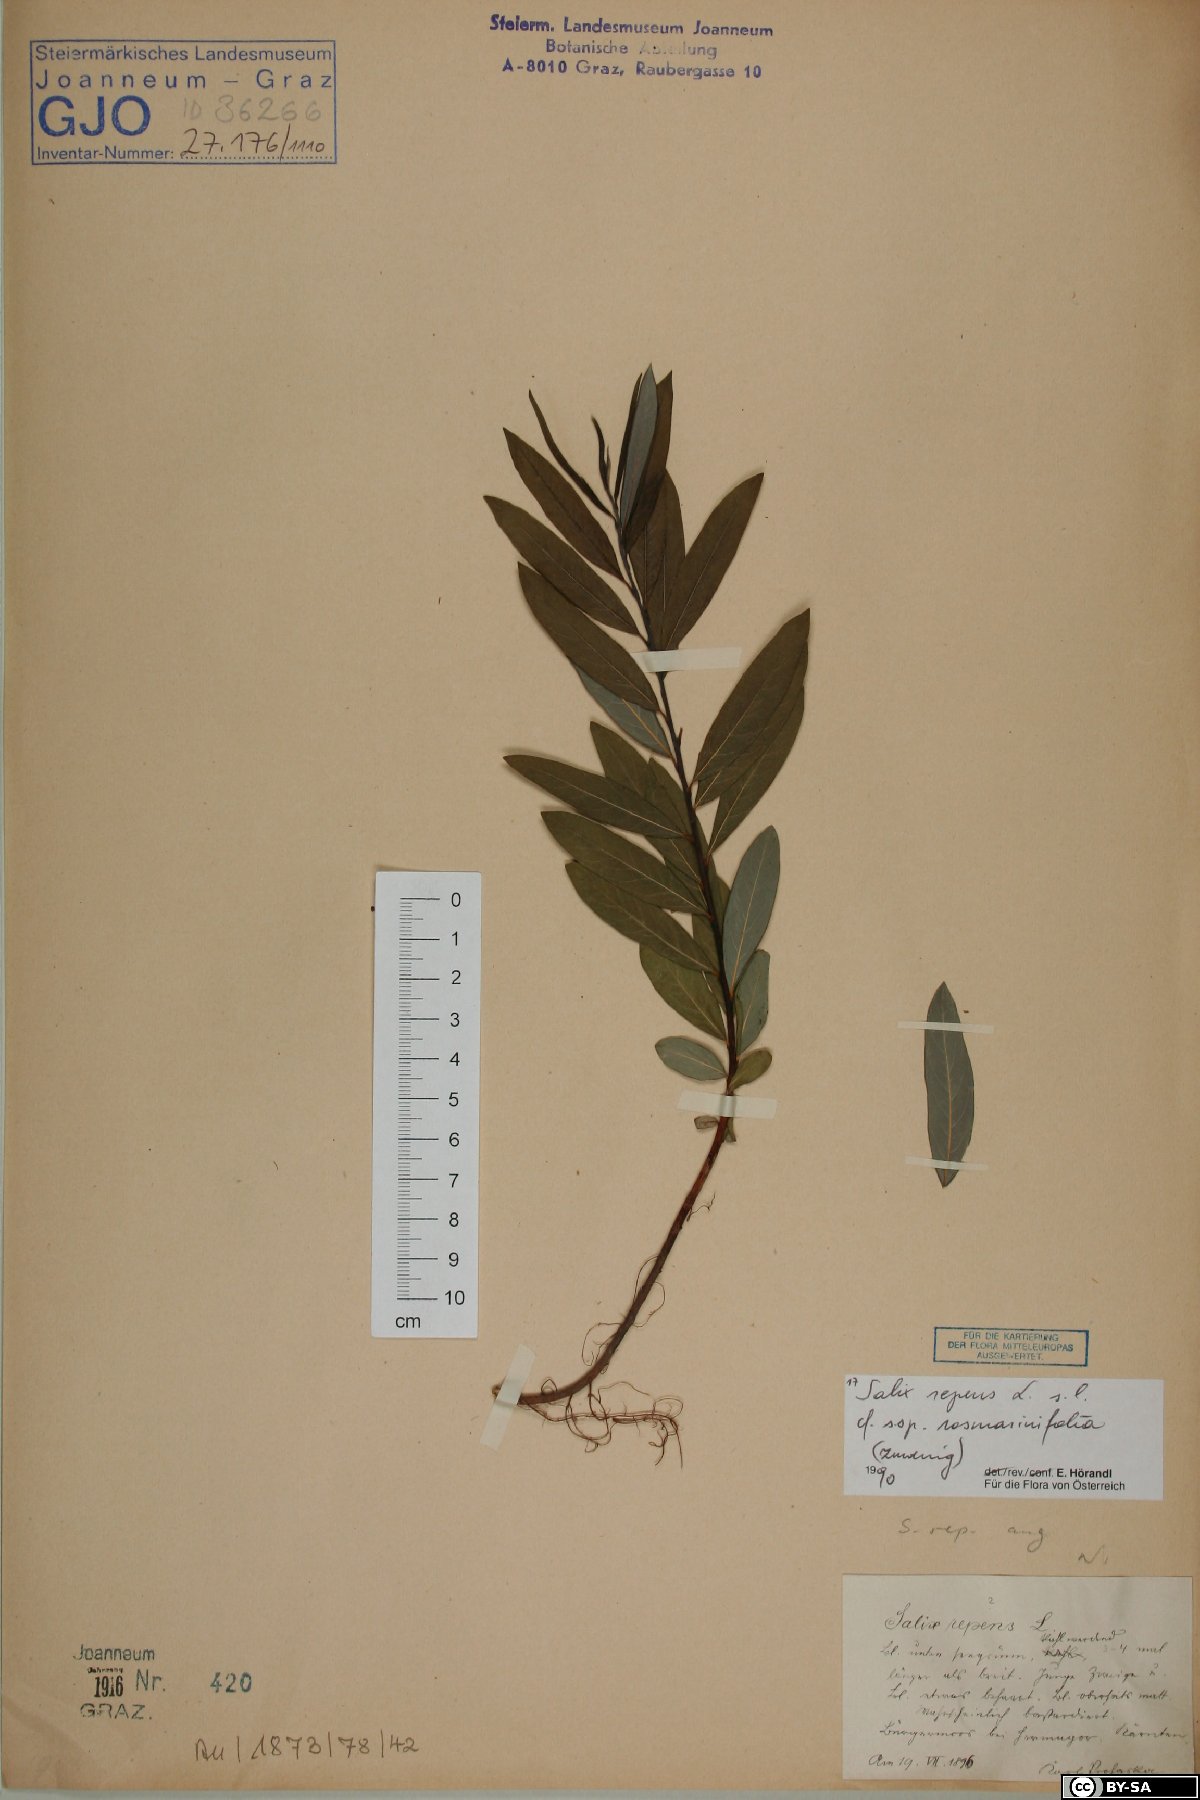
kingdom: Plantae
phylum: Tracheophyta
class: Magnoliopsida
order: Malpighiales
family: Salicaceae
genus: Salix
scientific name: Salix repens
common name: Creeping willow
